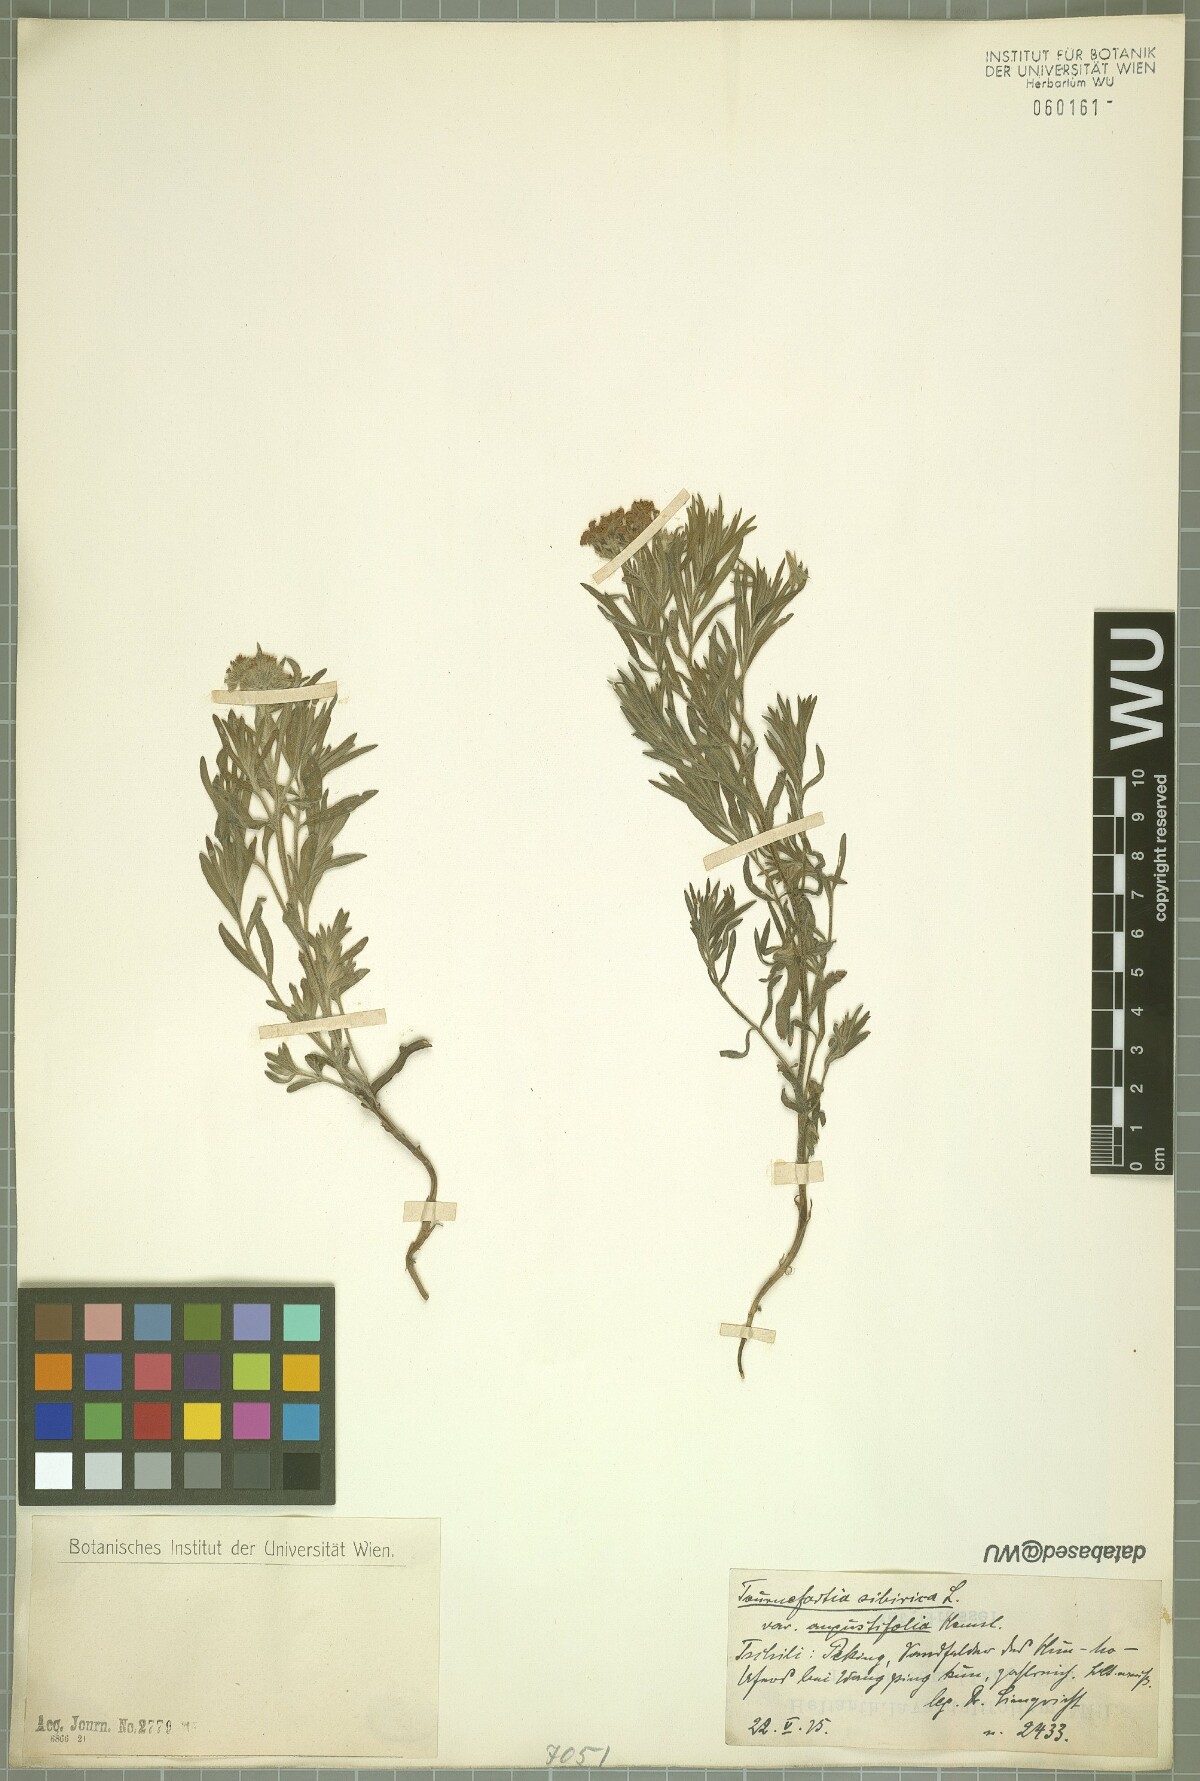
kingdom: Plantae
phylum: Tracheophyta
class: Magnoliopsida
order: Boraginales
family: Heliotropiaceae
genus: Tournefortia
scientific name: Tournefortia sibirica
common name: Siberian sea rosemary
